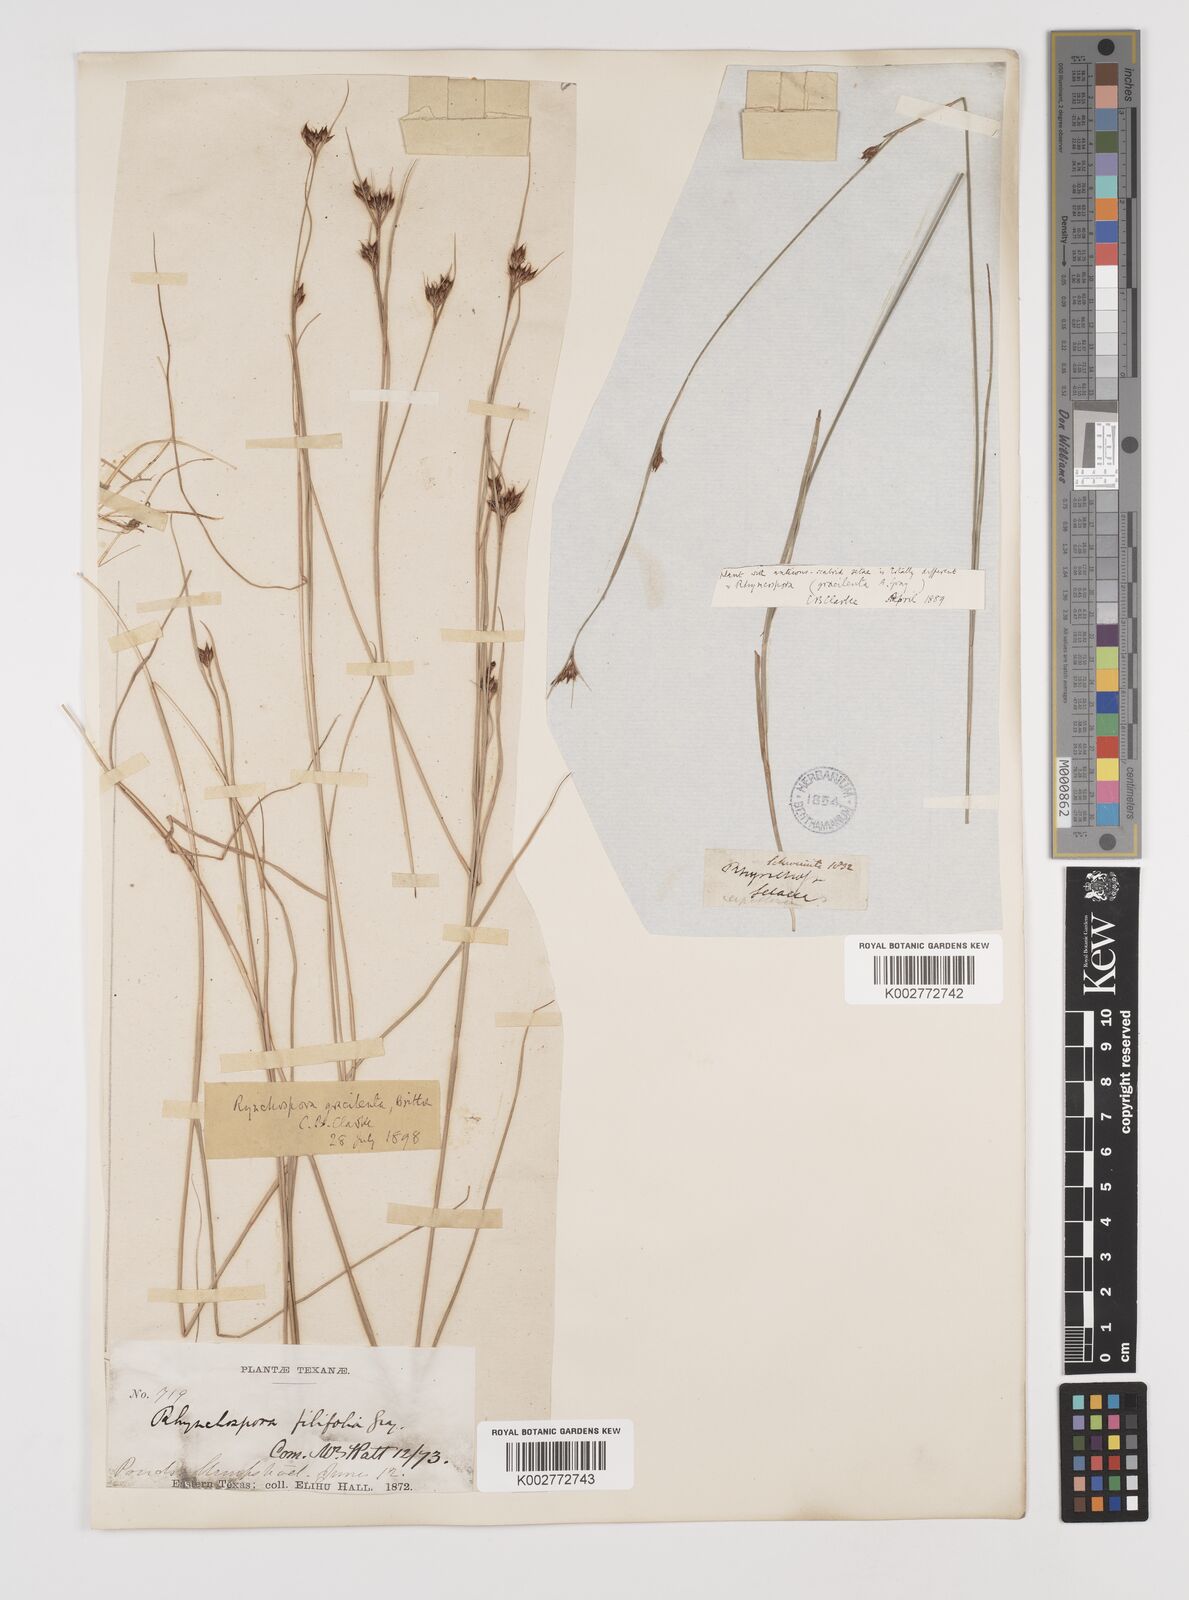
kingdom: Plantae
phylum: Tracheophyta
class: Liliopsida
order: Poales
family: Cyperaceae
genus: Rhynchospora
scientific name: Rhynchospora gracilenta
